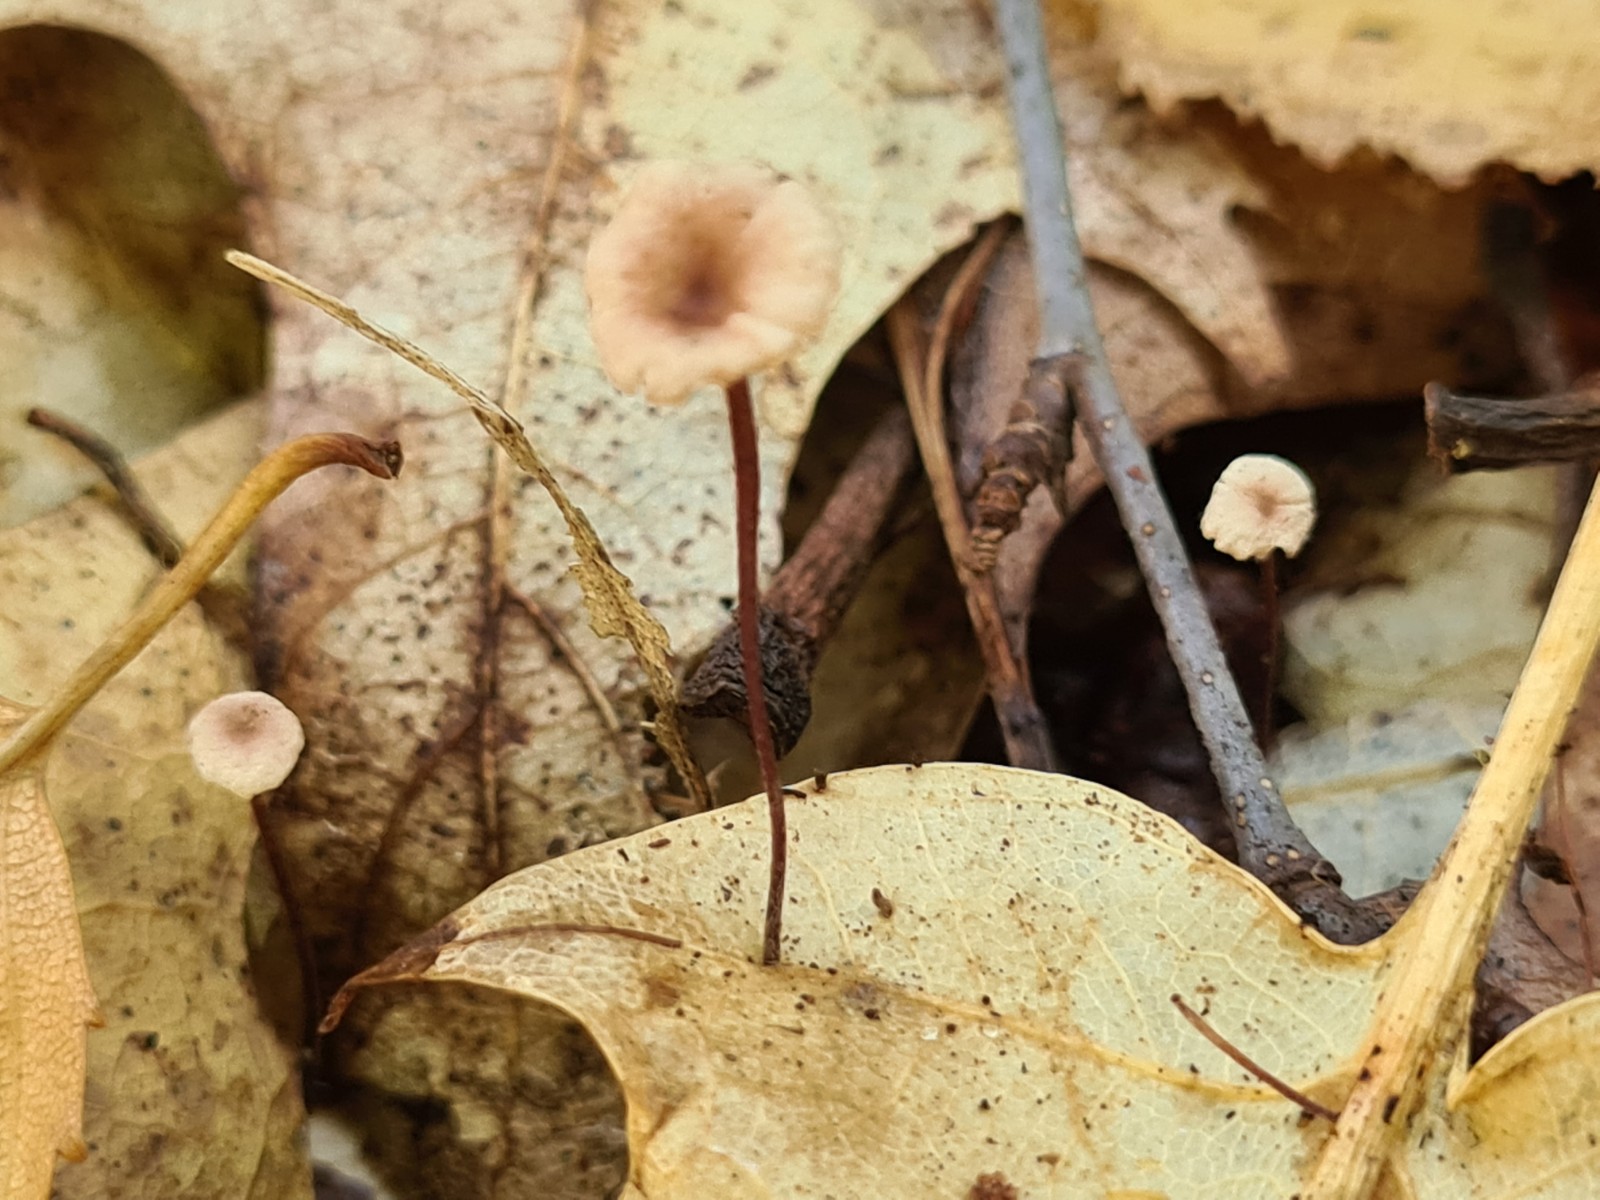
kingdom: Fungi
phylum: Basidiomycota
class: Agaricomycetes
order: Agaricales
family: Omphalotaceae
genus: Collybiopsis
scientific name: Collybiopsis quercophila
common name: egeblads-bruskhat
